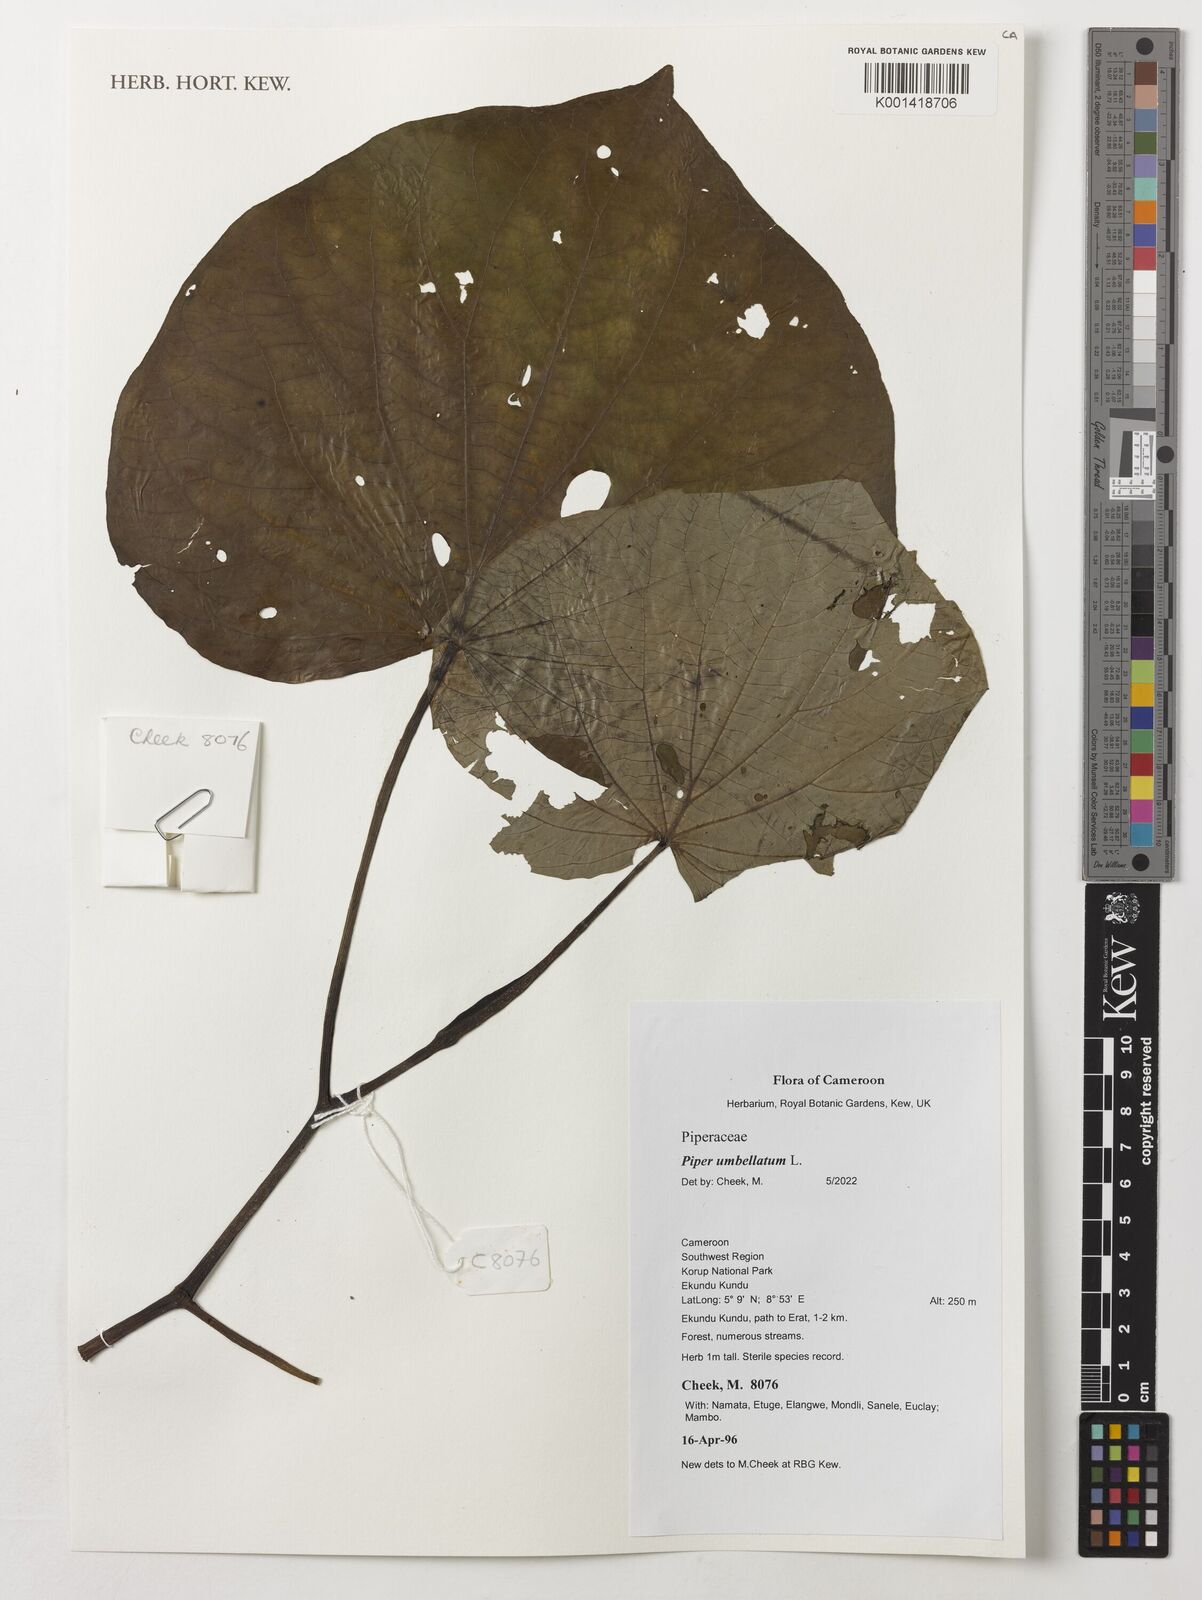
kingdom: Plantae
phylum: Tracheophyta
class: Magnoliopsida
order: Piperales
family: Piperaceae
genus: Piper
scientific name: Piper umbellatum
